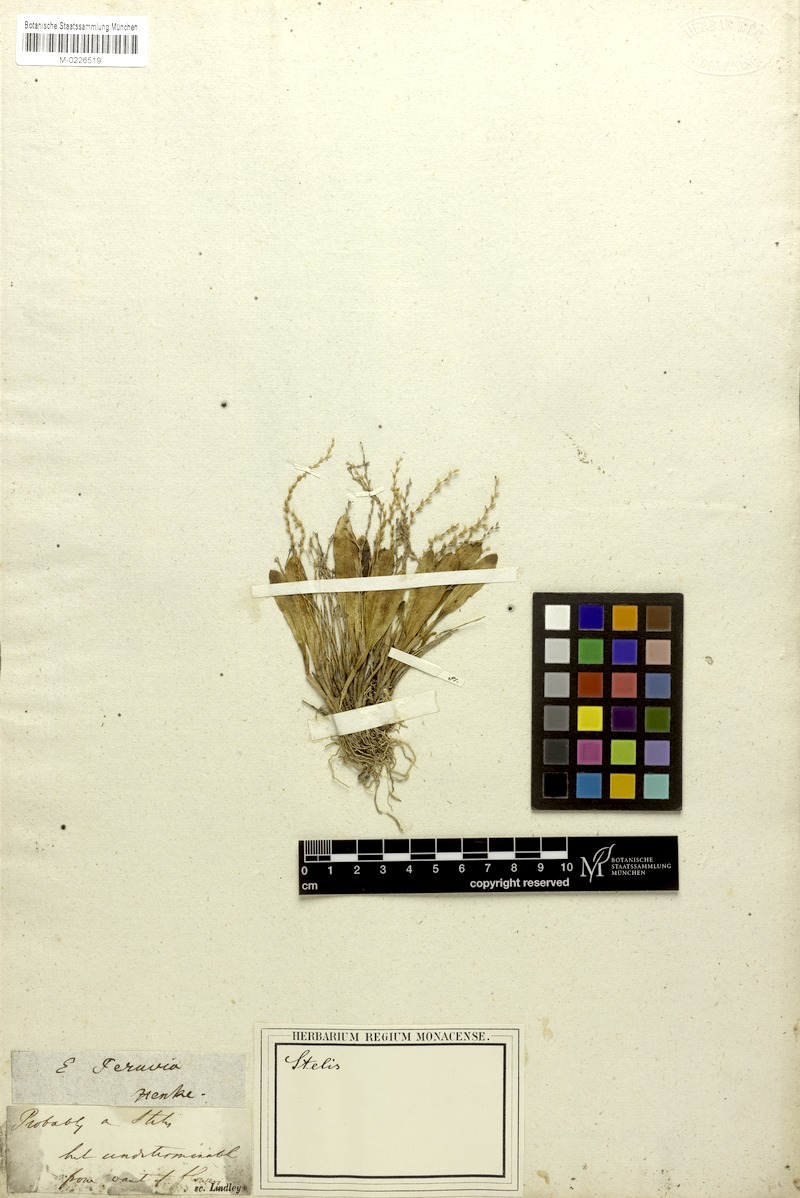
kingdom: Plantae
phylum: Tracheophyta
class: Liliopsida
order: Asparagales
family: Orchidaceae
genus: Stelis
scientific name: Stelis
